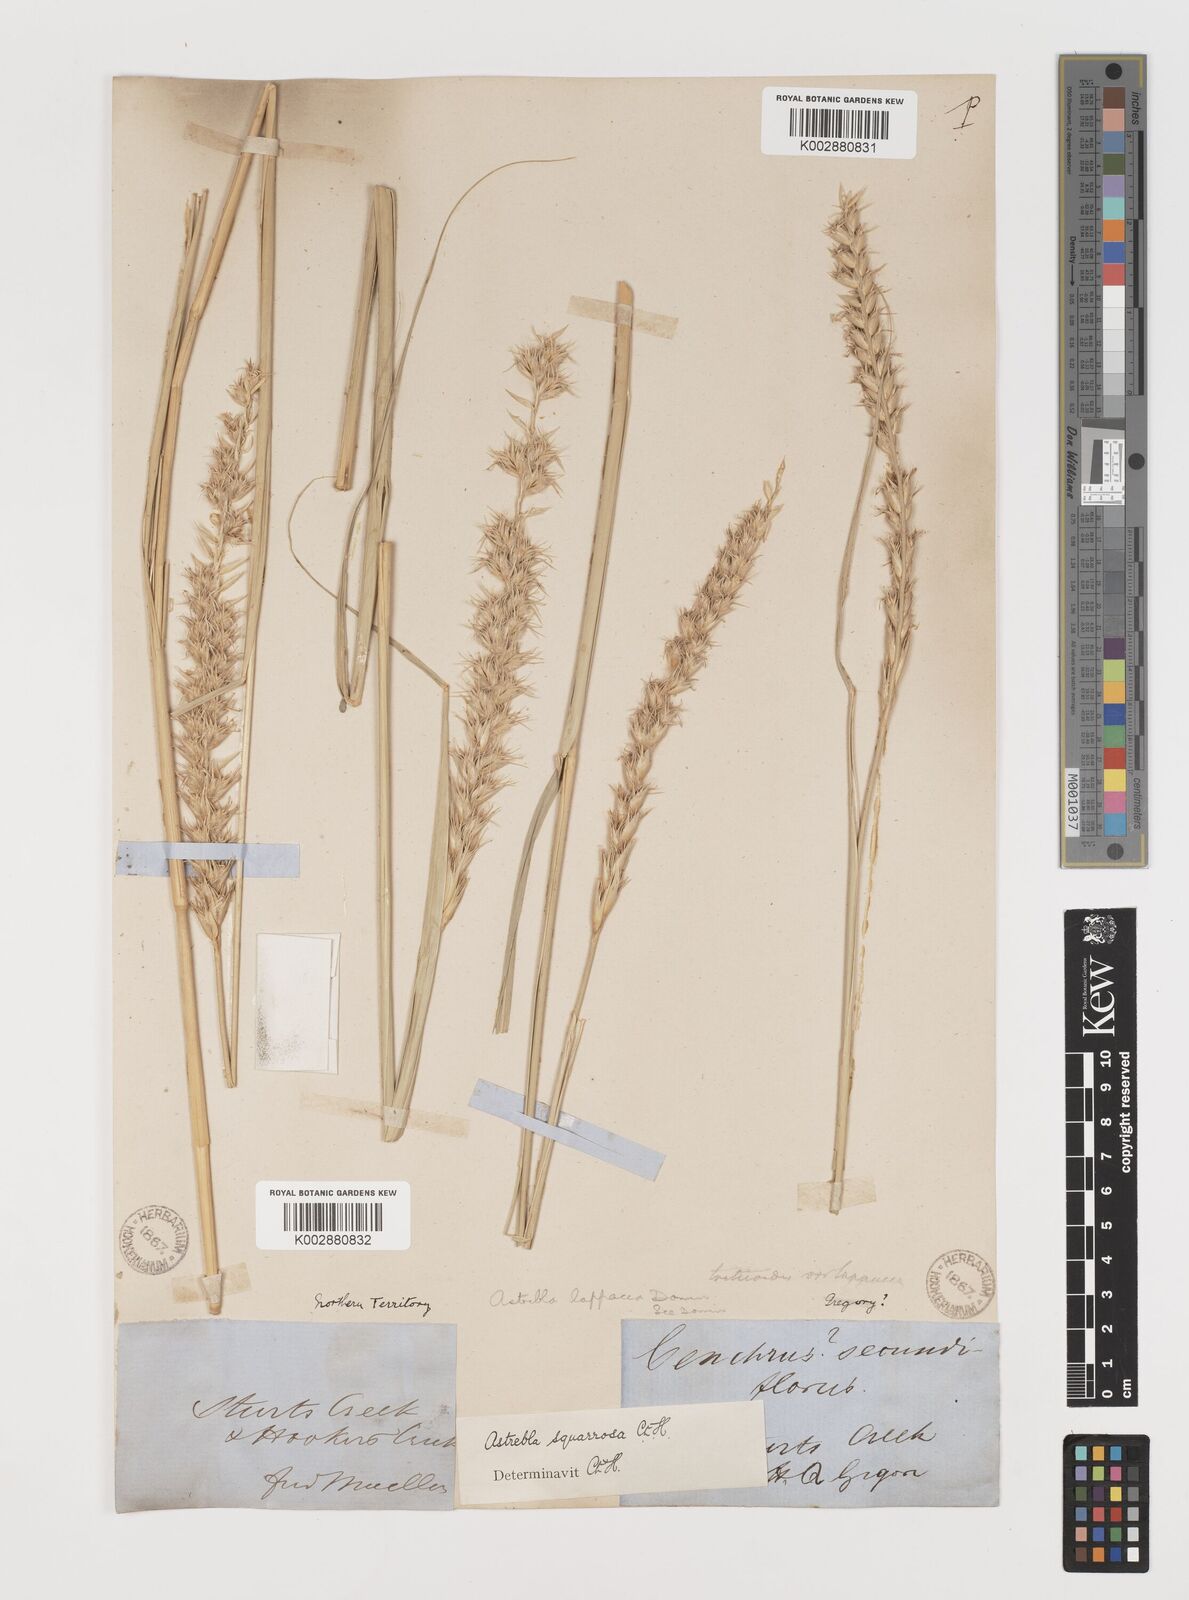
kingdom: Plantae
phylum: Tracheophyta
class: Liliopsida
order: Poales
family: Poaceae
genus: Astrebla
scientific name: Astrebla squarrosa
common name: Wheat-ear mitchell grass
